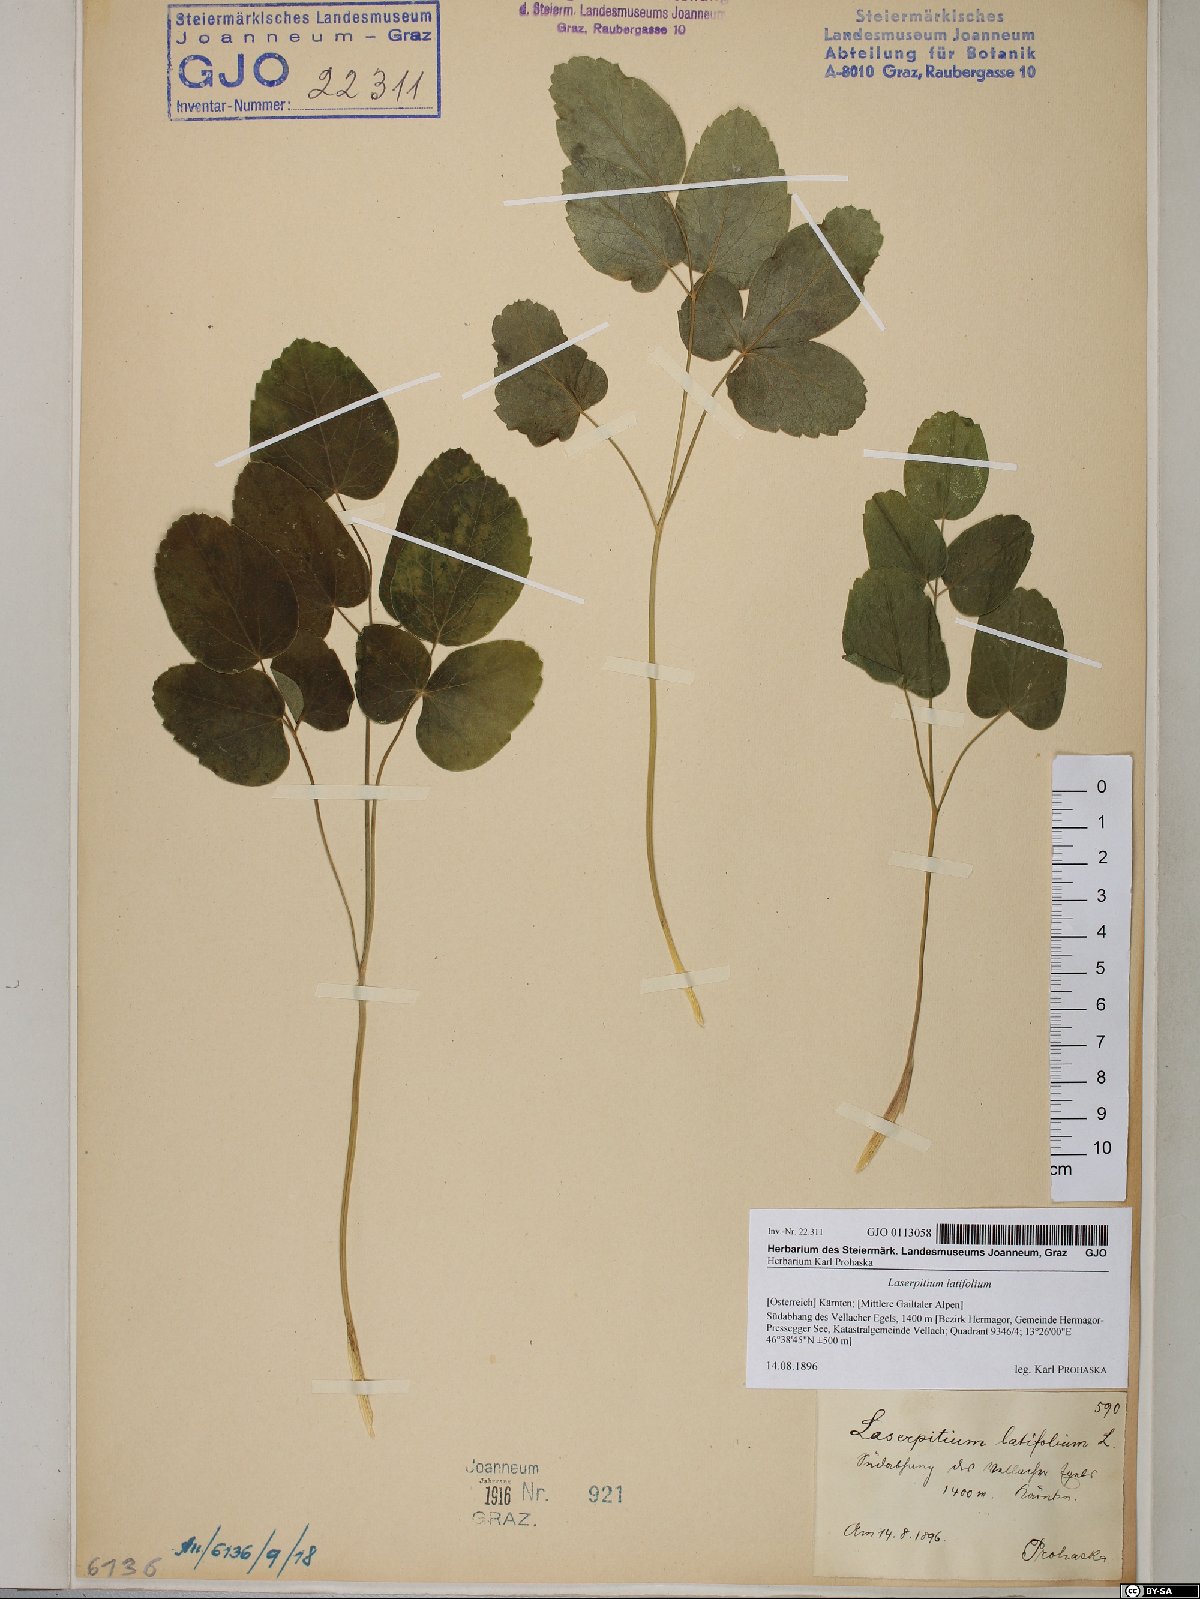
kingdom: Plantae
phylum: Tracheophyta
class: Magnoliopsida
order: Apiales
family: Apiaceae
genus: Laserpitium
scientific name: Laserpitium latifolium
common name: Broadleaf sermountain
